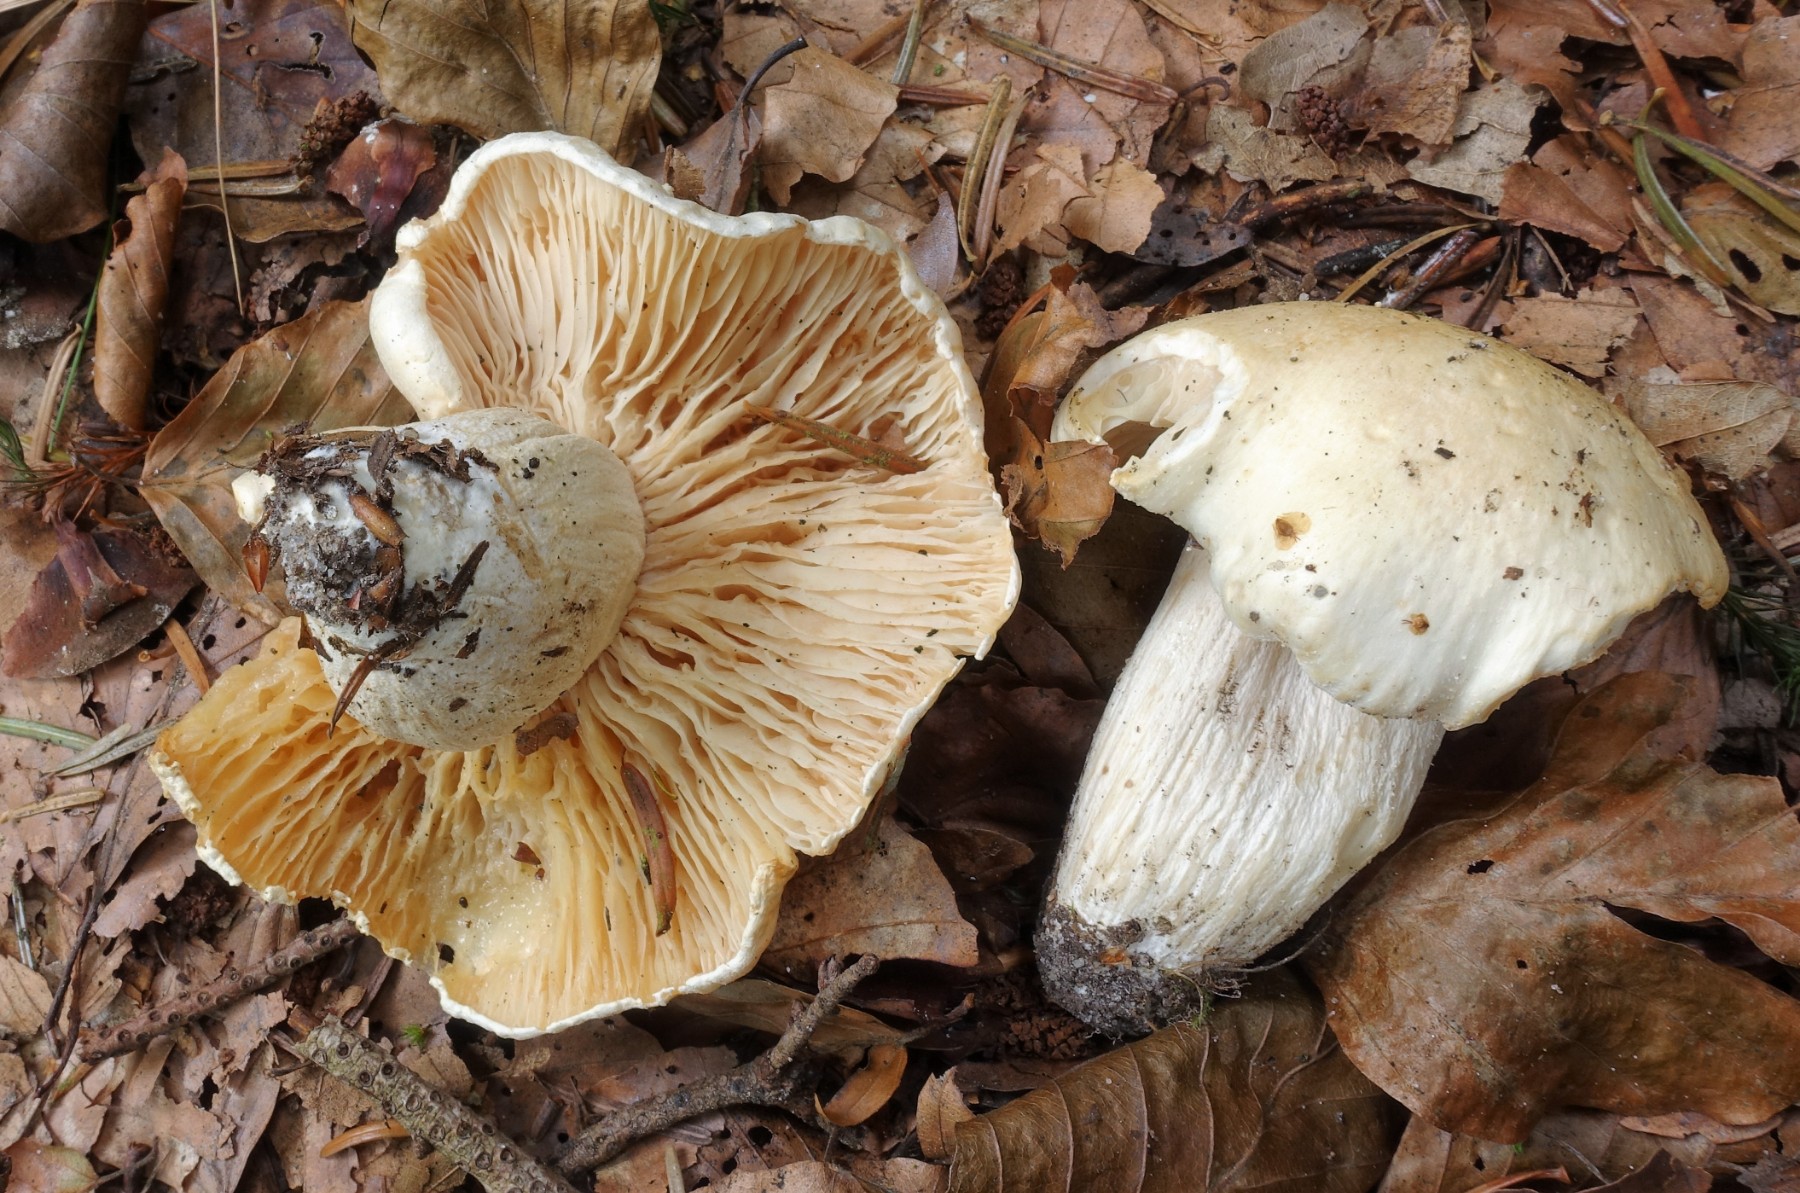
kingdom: Fungi
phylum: Basidiomycota
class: Agaricomycetes
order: Agaricales
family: Hygrophoraceae
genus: Hygrophorus
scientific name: Hygrophorus penarius
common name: spiselig sneglehat
